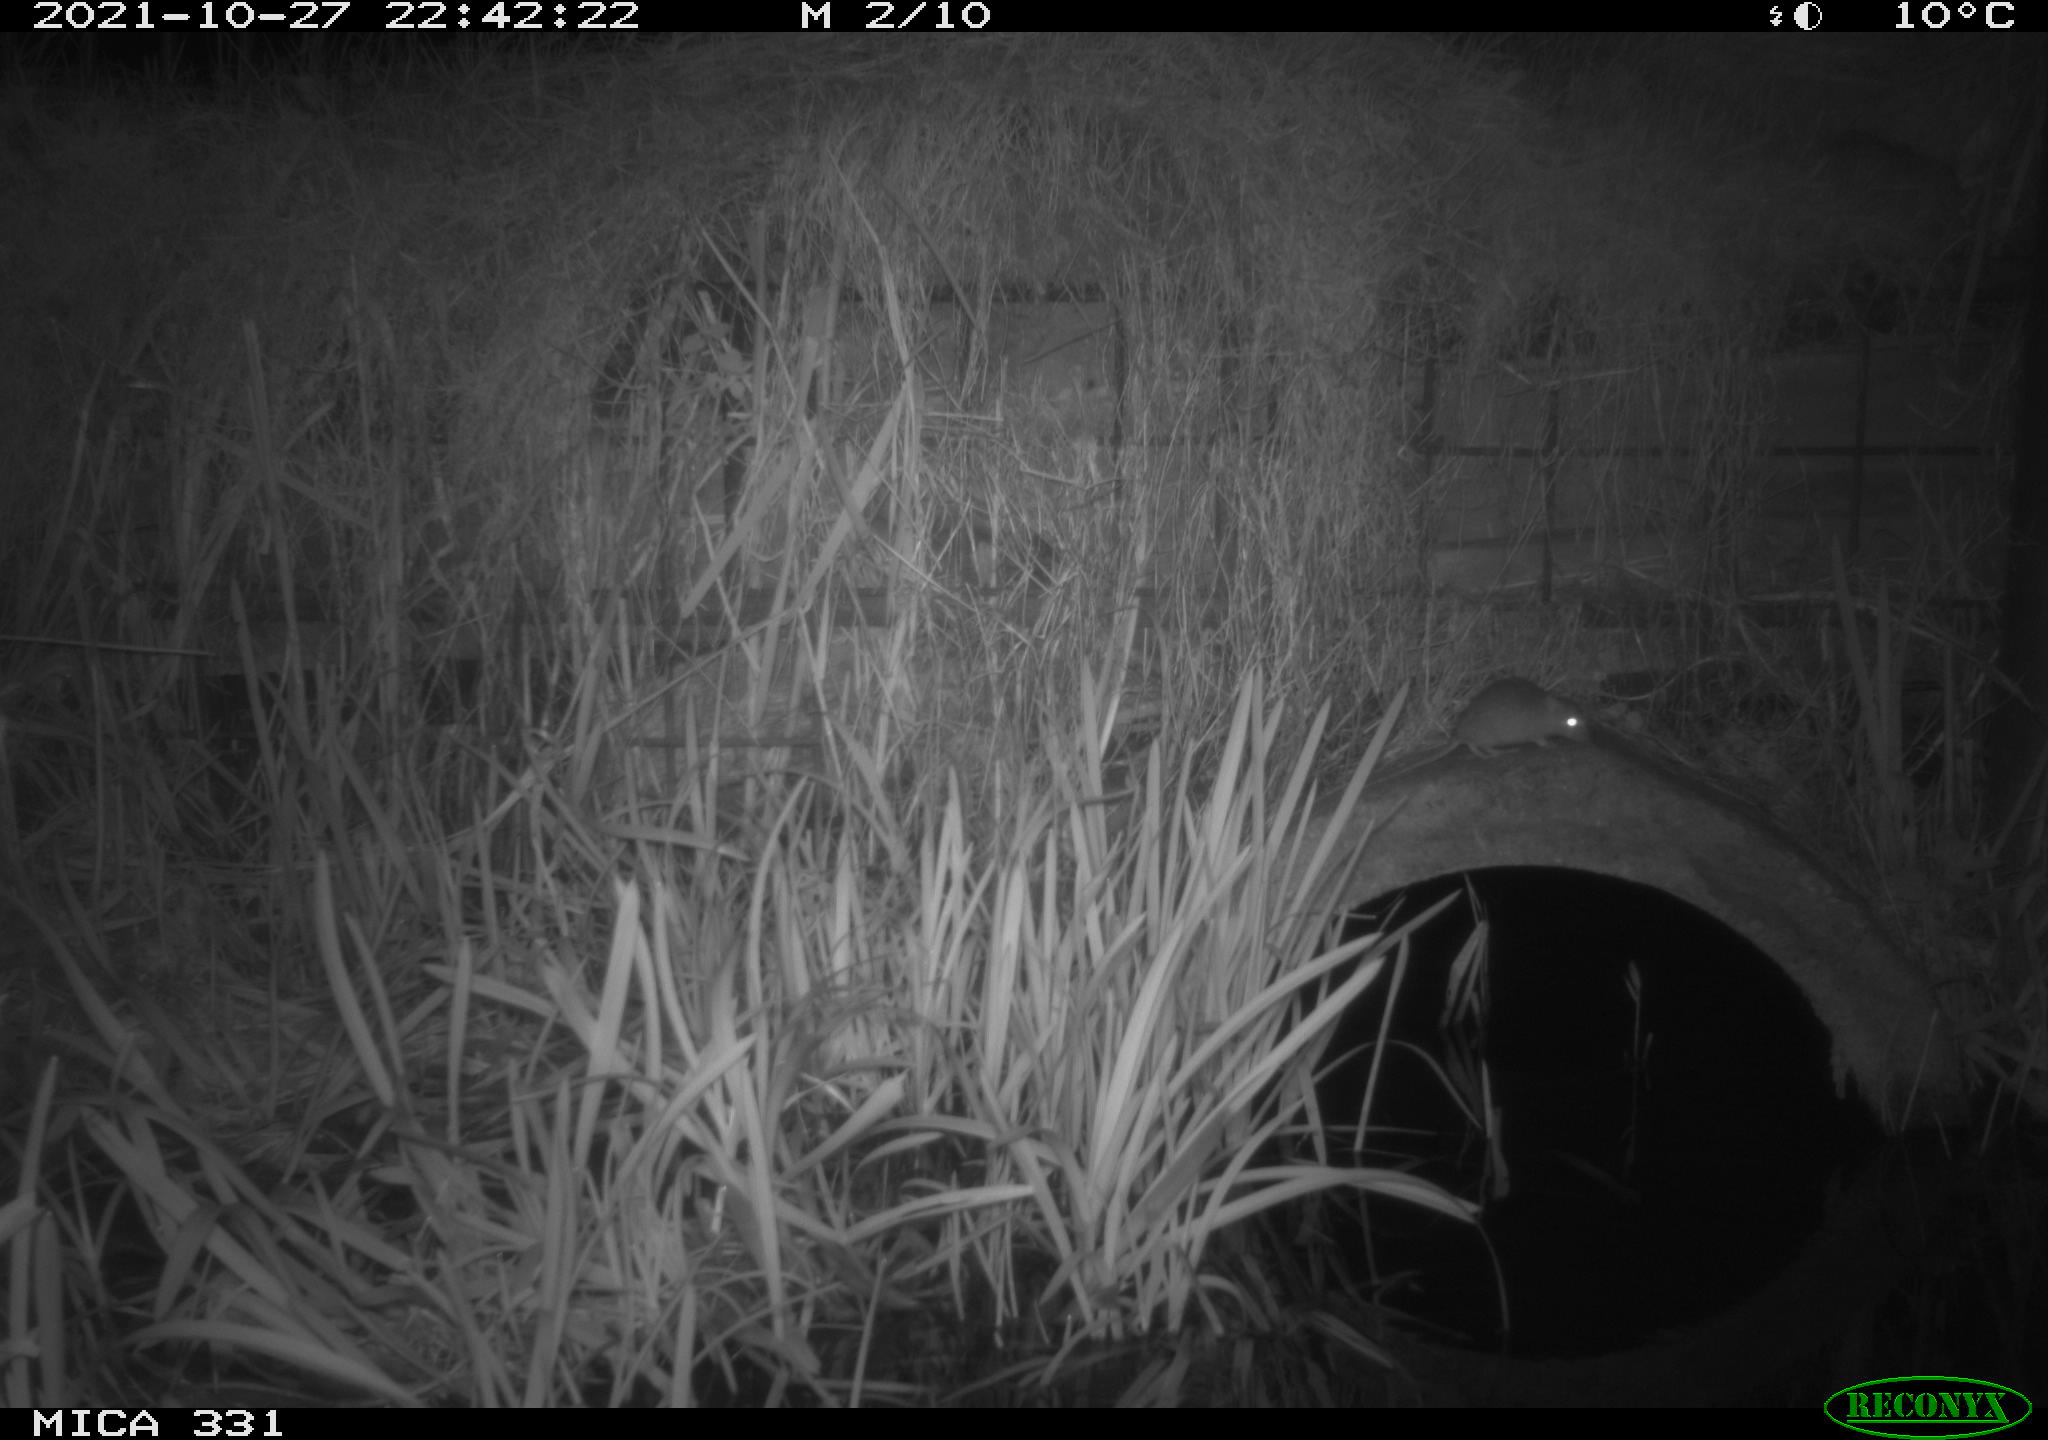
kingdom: Animalia
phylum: Chordata
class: Mammalia
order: Rodentia
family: Muridae
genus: Rattus
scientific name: Rattus norvegicus
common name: Brown rat
